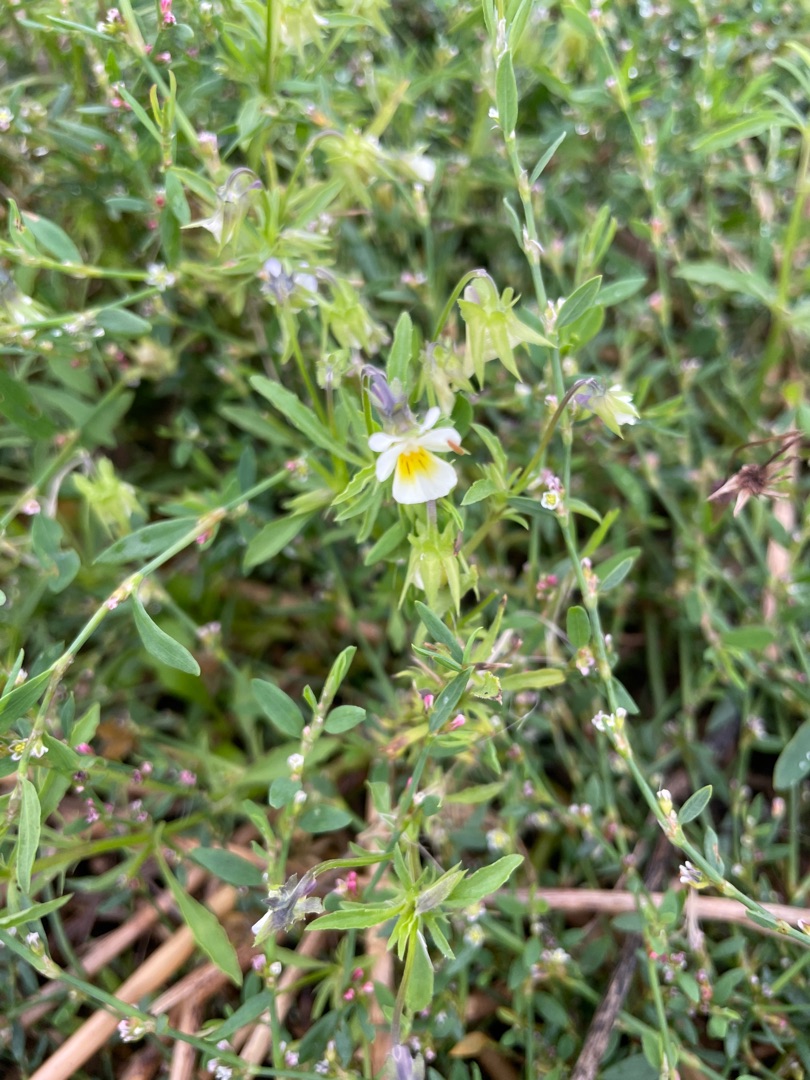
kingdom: Plantae
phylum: Tracheophyta
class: Magnoliopsida
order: Malpighiales
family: Violaceae
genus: Viola
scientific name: Viola arvensis
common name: Ager-stedmoderblomst
